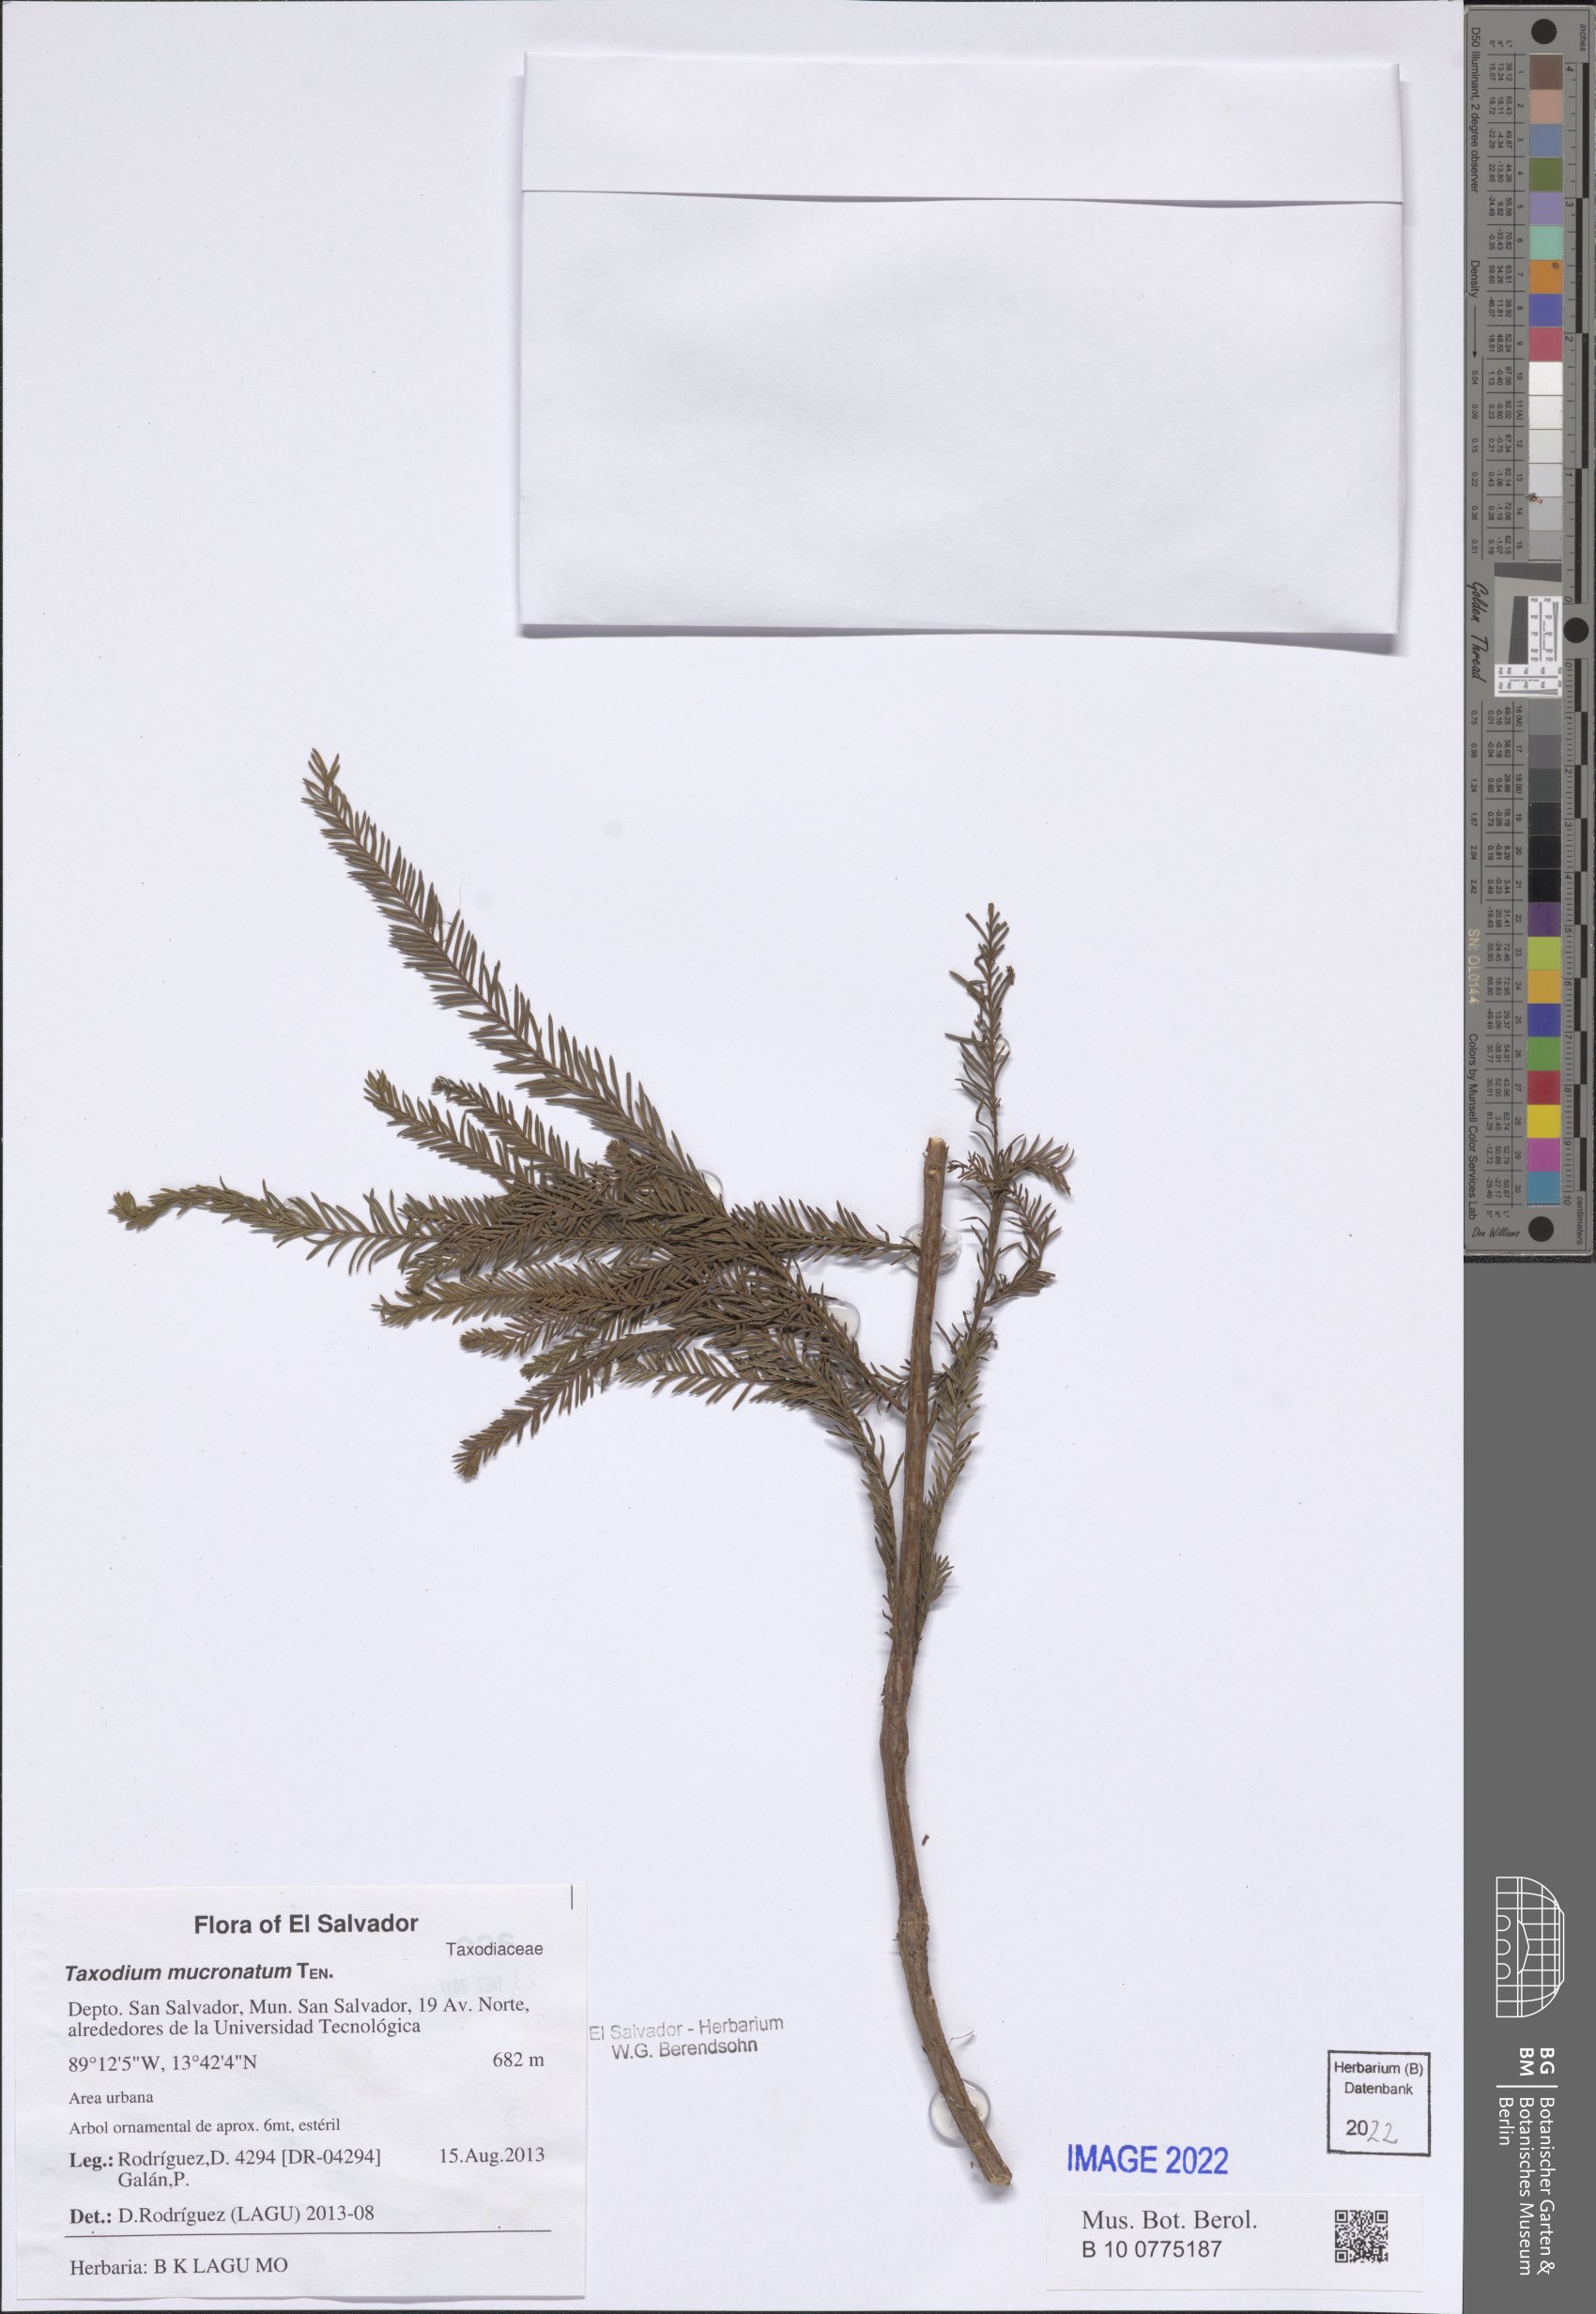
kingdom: Plantae
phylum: Tracheophyta
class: Pinopsida
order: Pinales
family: Cupressaceae
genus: Taxodium
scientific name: Taxodium mucronatum
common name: Montezume bald cypress
